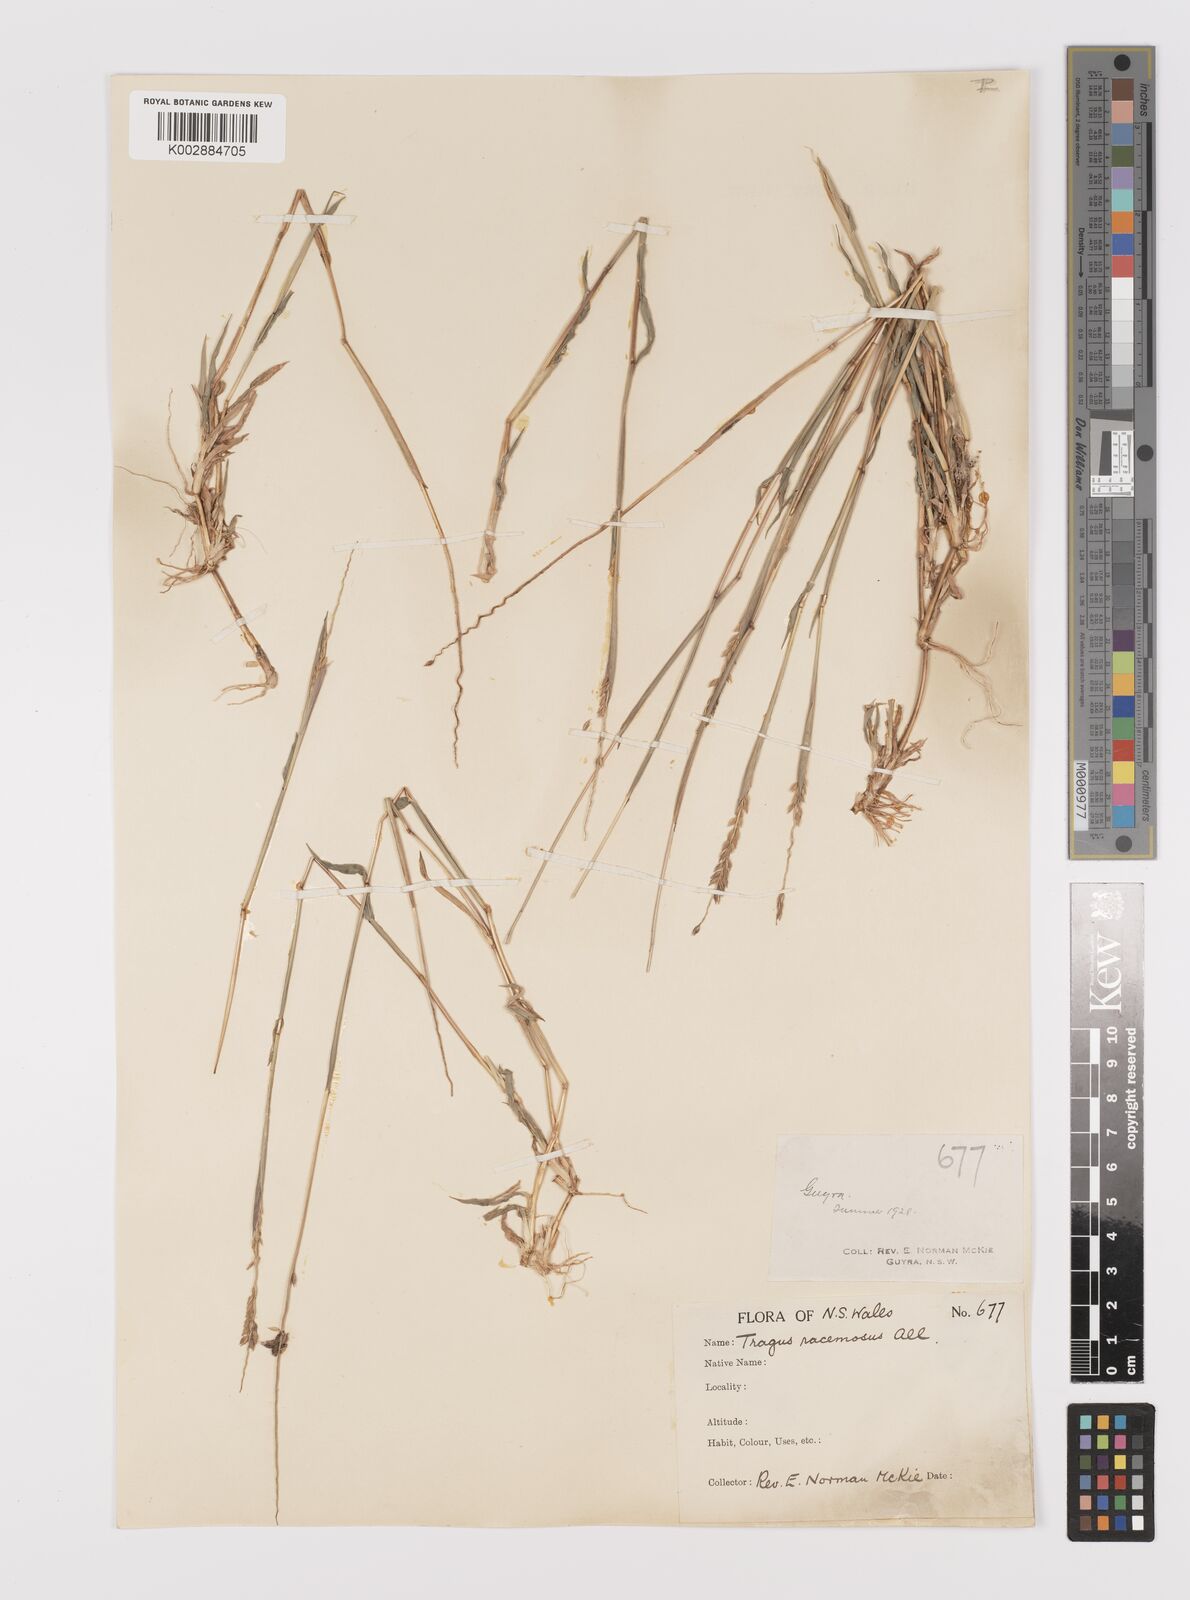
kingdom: Plantae
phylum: Tracheophyta
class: Liliopsida
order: Poales
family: Poaceae
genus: Tragus
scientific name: Tragus australianus
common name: Australian bur-grass
